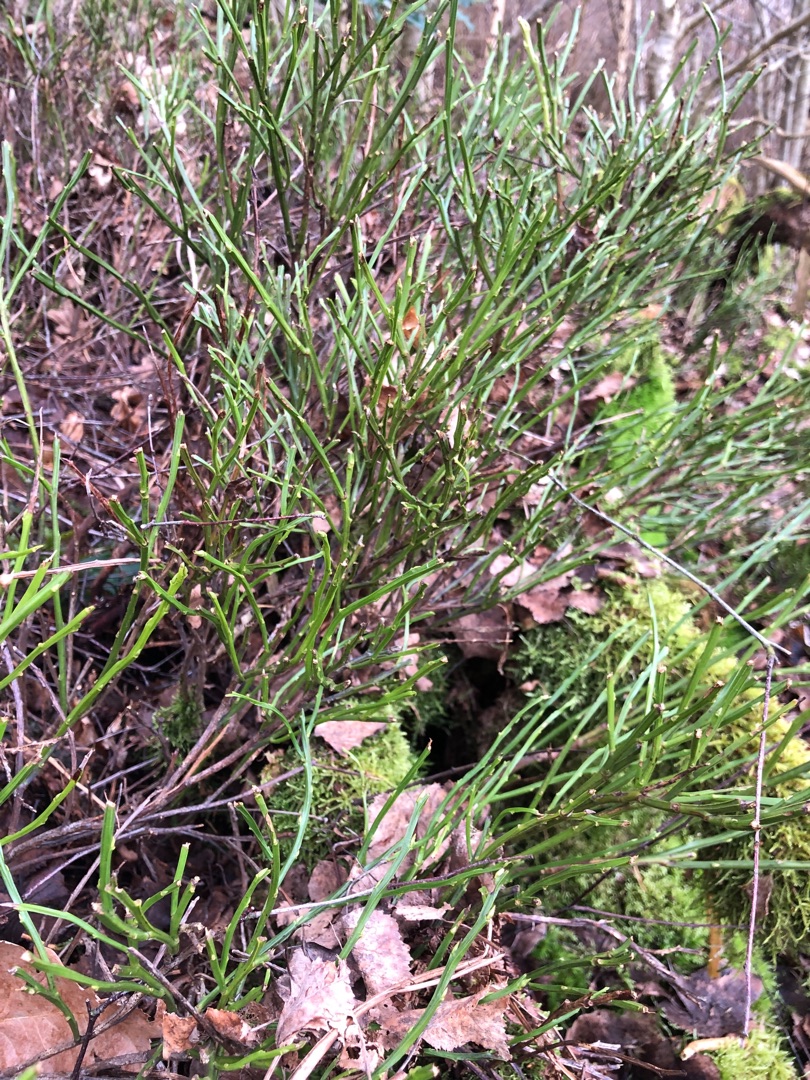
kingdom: Plantae
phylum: Tracheophyta
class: Magnoliopsida
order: Ericales
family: Ericaceae
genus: Vaccinium
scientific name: Vaccinium myrtillus
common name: Blåbær
